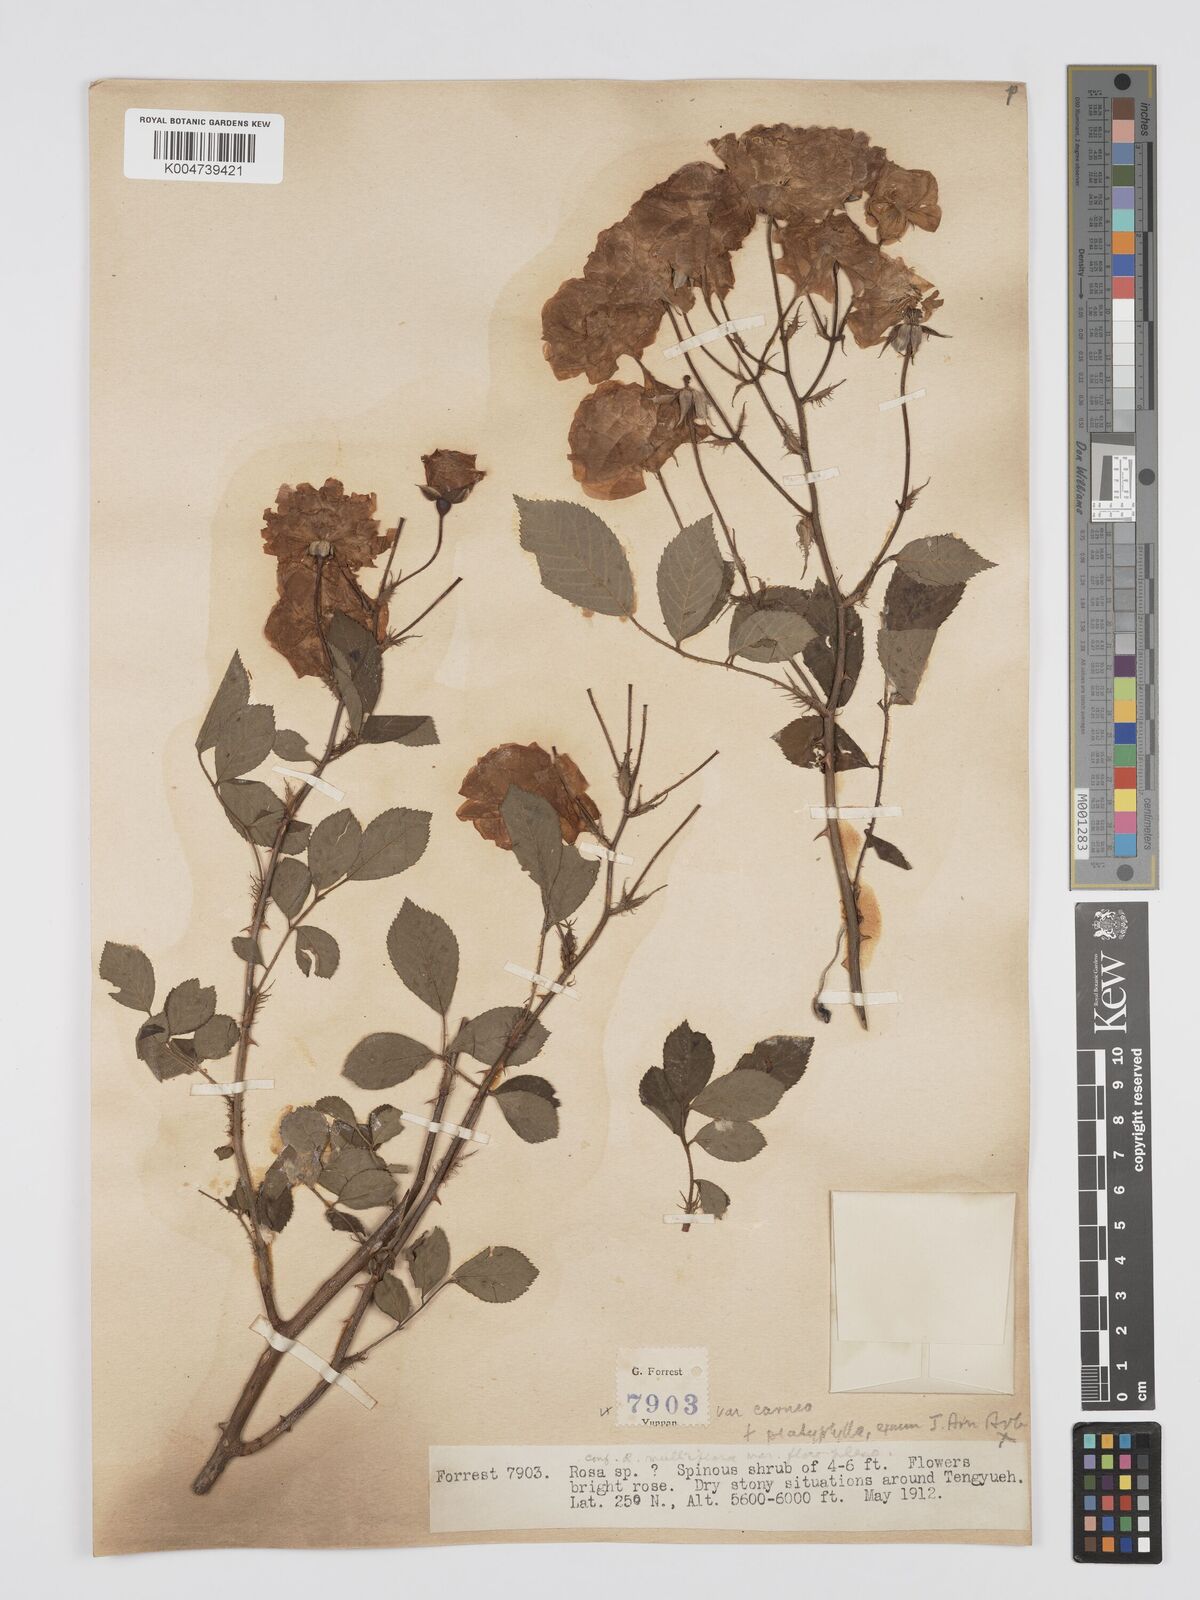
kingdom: Plantae
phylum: Tracheophyta
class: Magnoliopsida
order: Rosales
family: Rosaceae
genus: Rosa
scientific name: Rosa multiflora
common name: Multiflora rose
